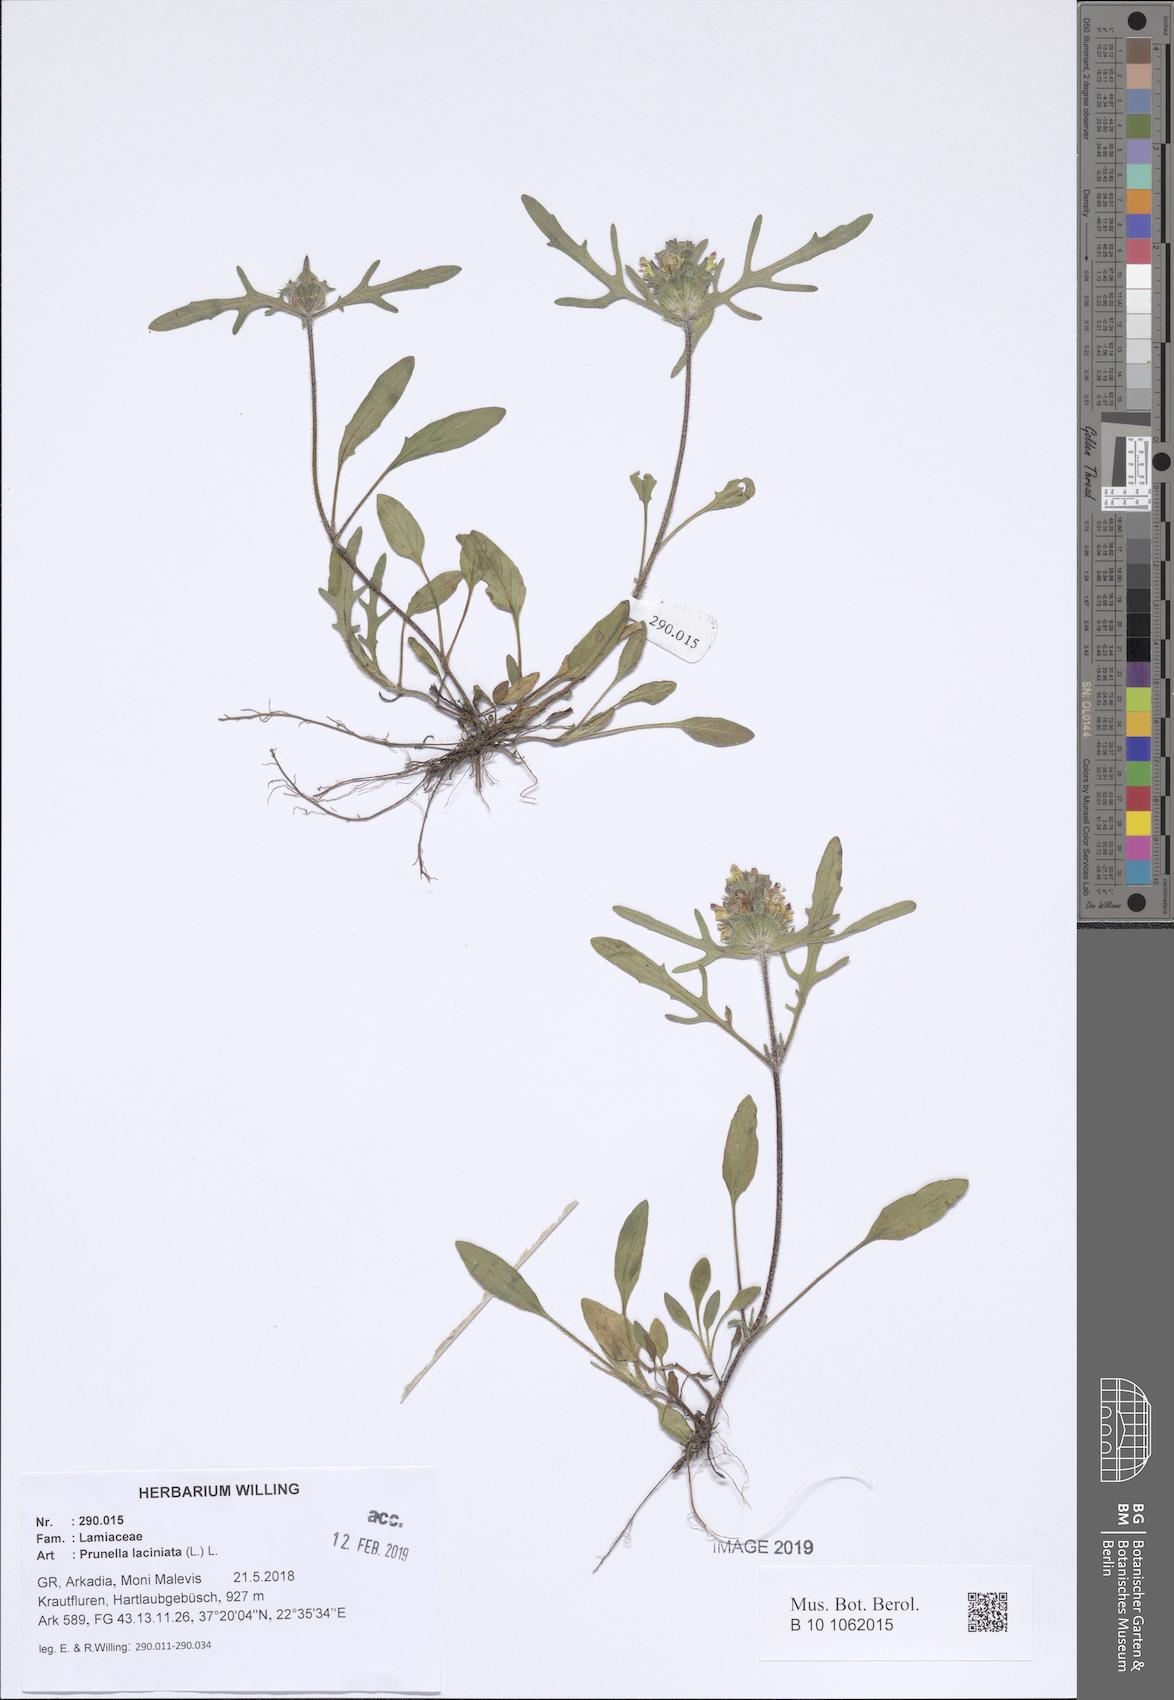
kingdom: Plantae
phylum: Tracheophyta
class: Magnoliopsida
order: Lamiales
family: Lamiaceae
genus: Prunella
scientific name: Prunella laciniata
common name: Cut-leaved selfheal
